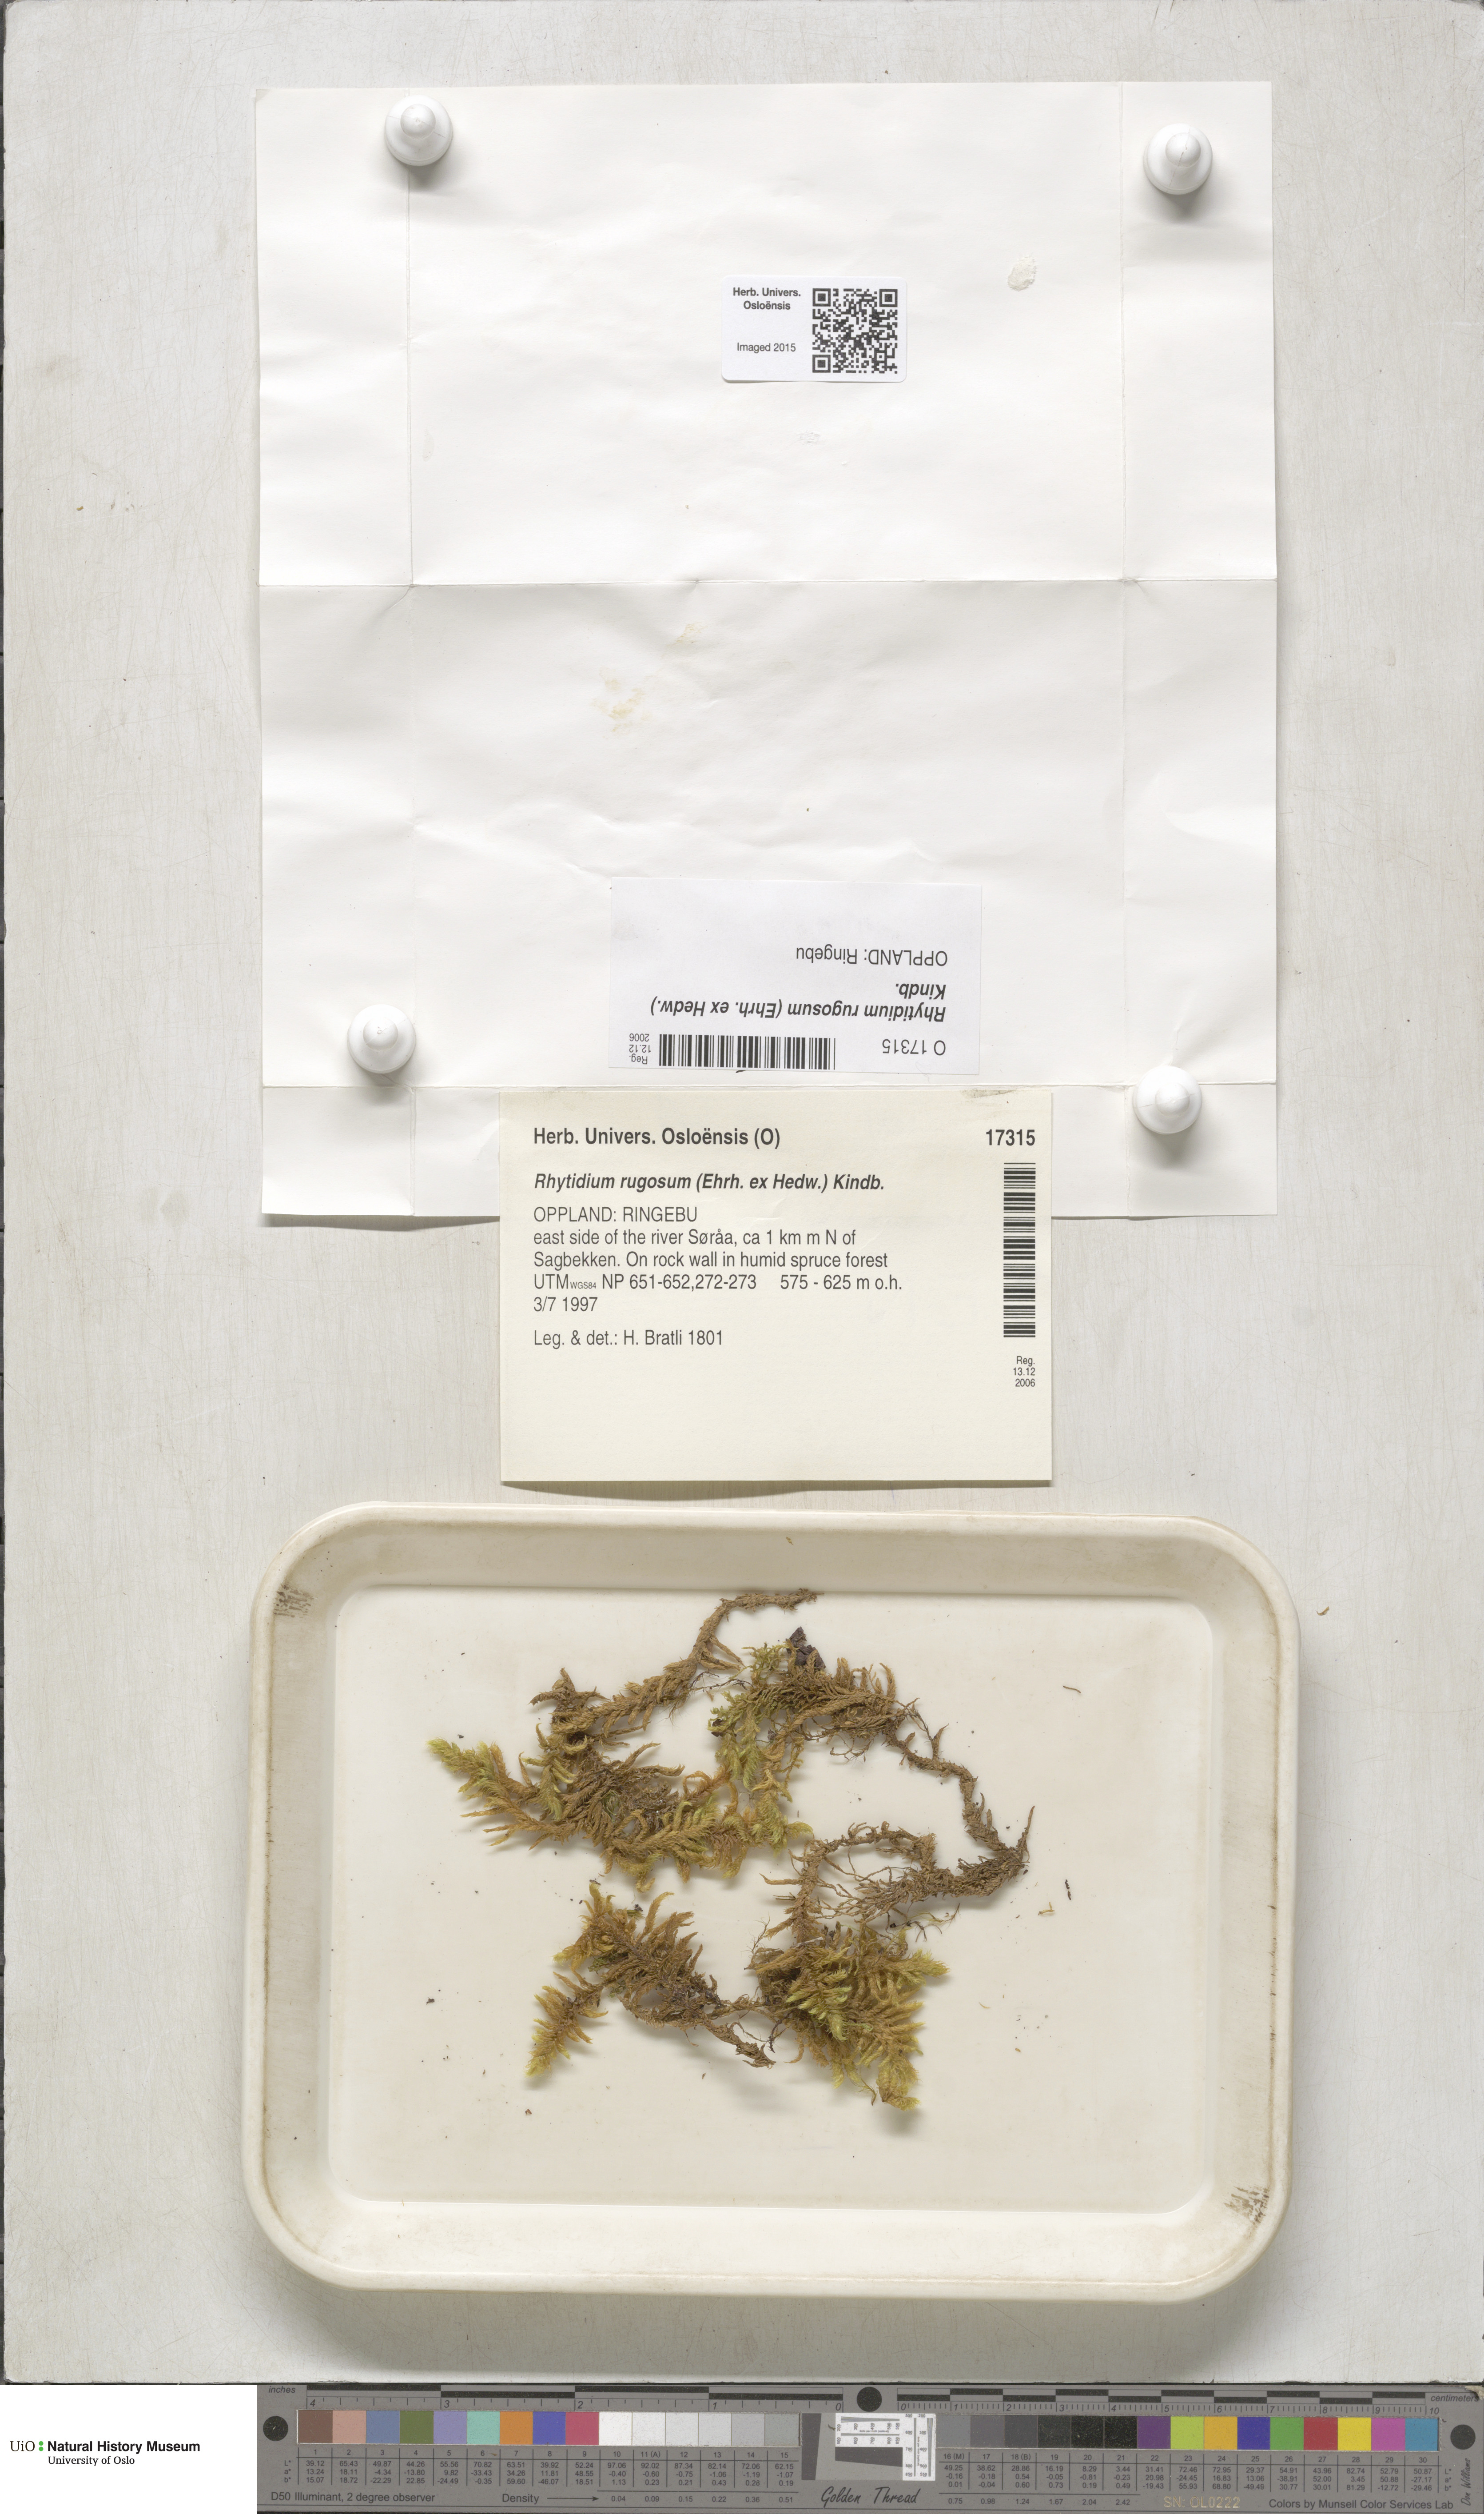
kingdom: Plantae
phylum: Bryophyta
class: Bryopsida
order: Hypnales
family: Rhytidiaceae
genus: Rhytidium
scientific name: Rhytidium rugosum
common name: Wrinkle-leaved moss
